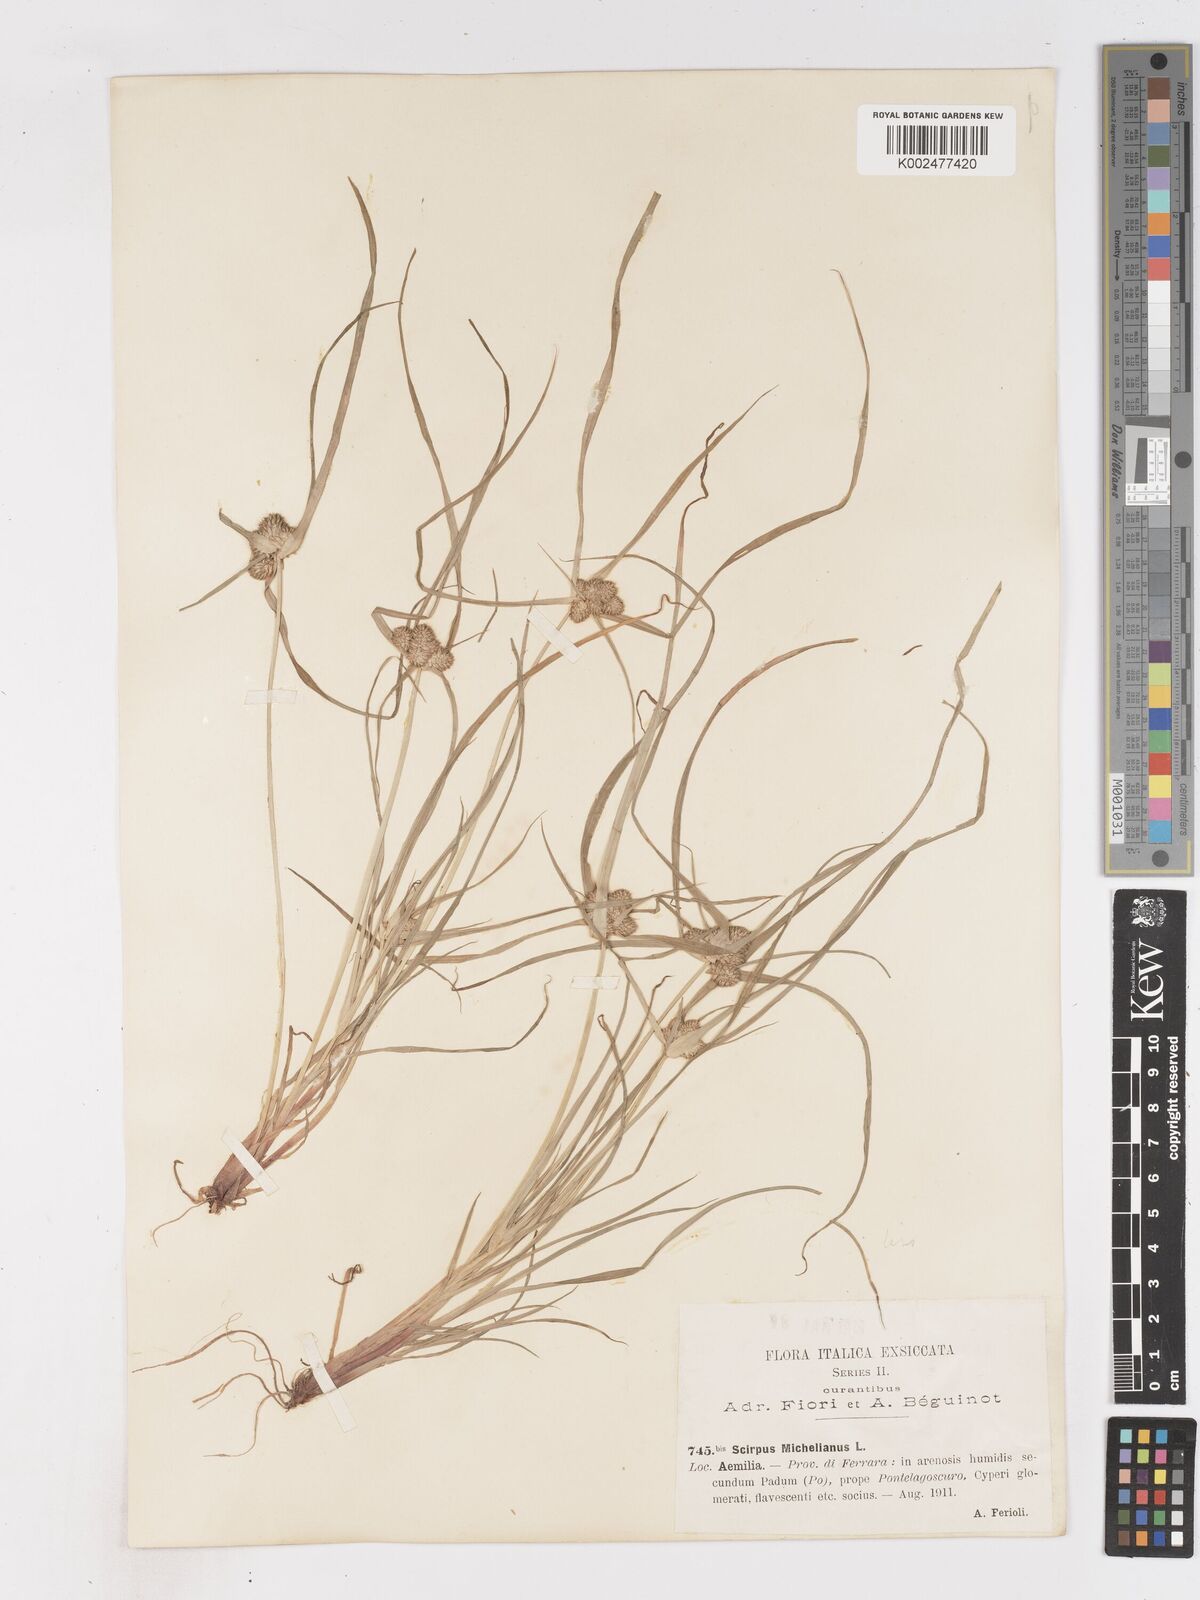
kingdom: Plantae
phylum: Tracheophyta
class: Liliopsida
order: Poales
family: Cyperaceae
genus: Cyperus
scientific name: Cyperus michelianus
